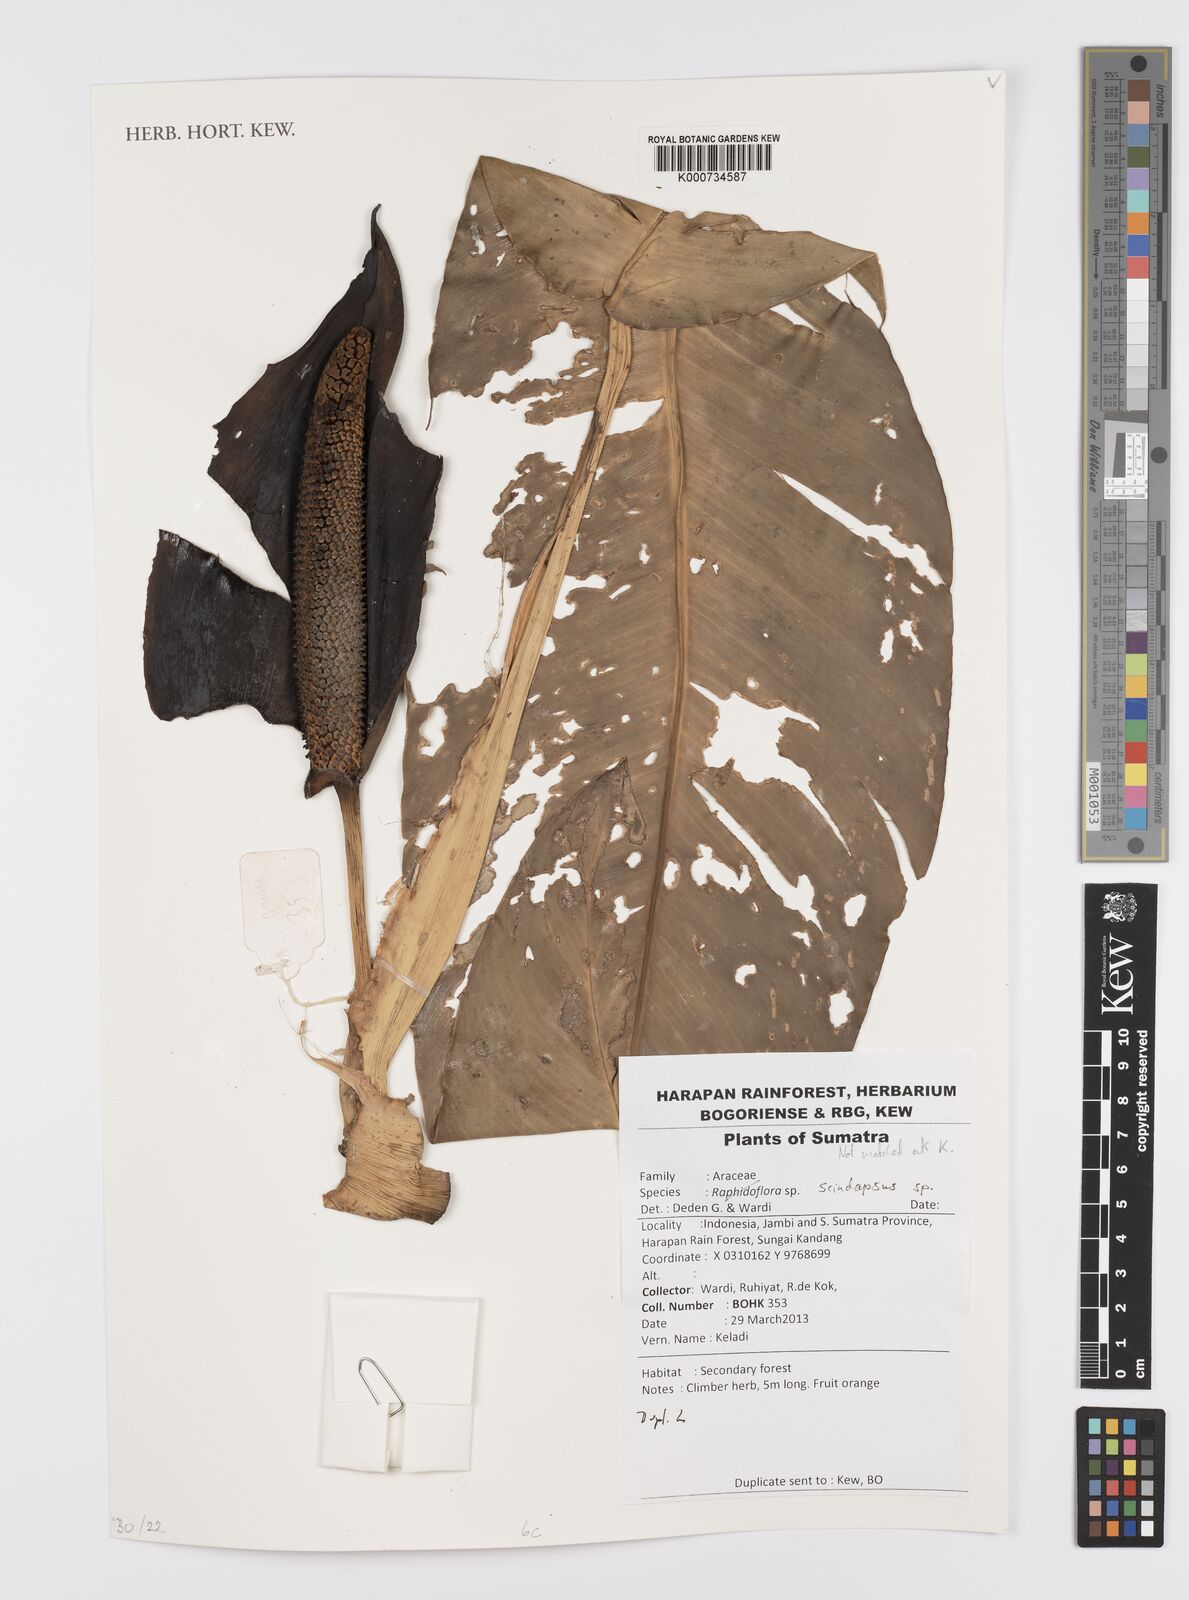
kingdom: Plantae
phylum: Tracheophyta
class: Liliopsida
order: Alismatales
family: Araceae
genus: Scindapsus
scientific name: Scindapsus
